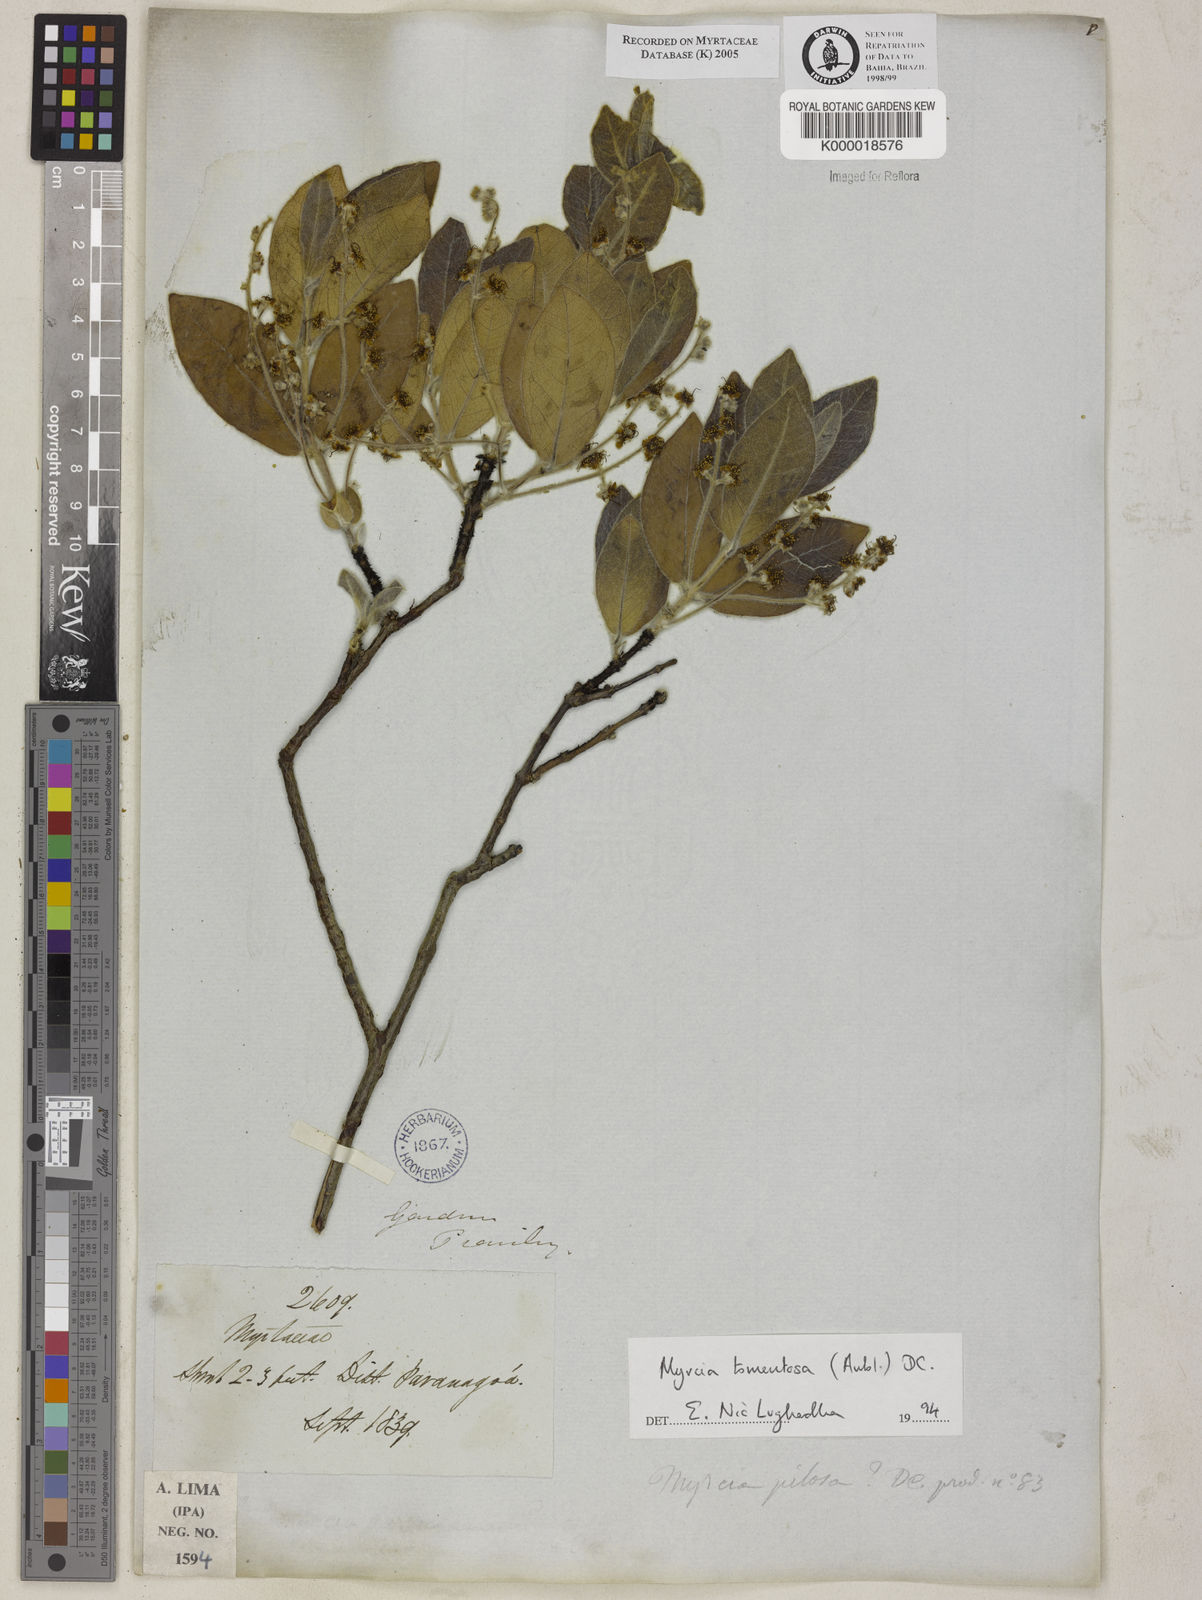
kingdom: Plantae
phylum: Tracheophyta
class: Magnoliopsida
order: Myrtales
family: Myrtaceae
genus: Myrcia
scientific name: Myrcia tomentosa
